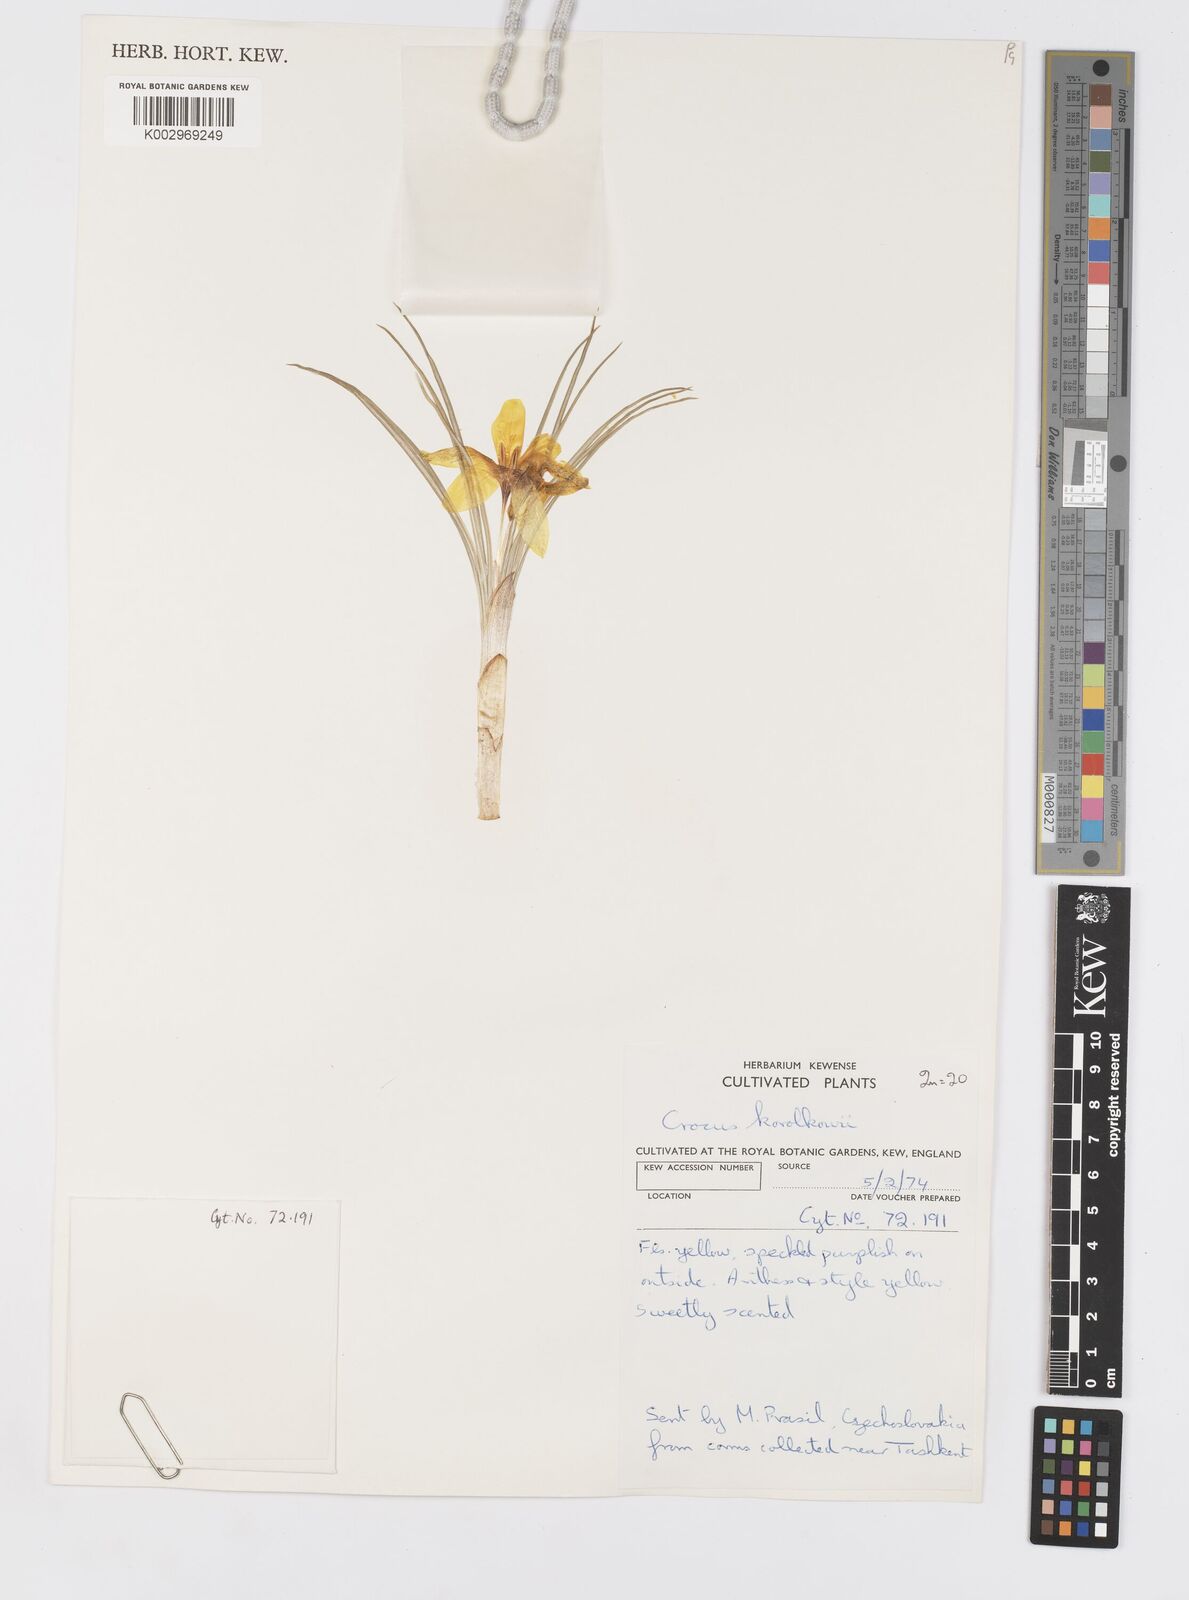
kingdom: Plantae
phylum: Tracheophyta
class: Liliopsida
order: Asparagales
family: Iridaceae
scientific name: Iridaceae
